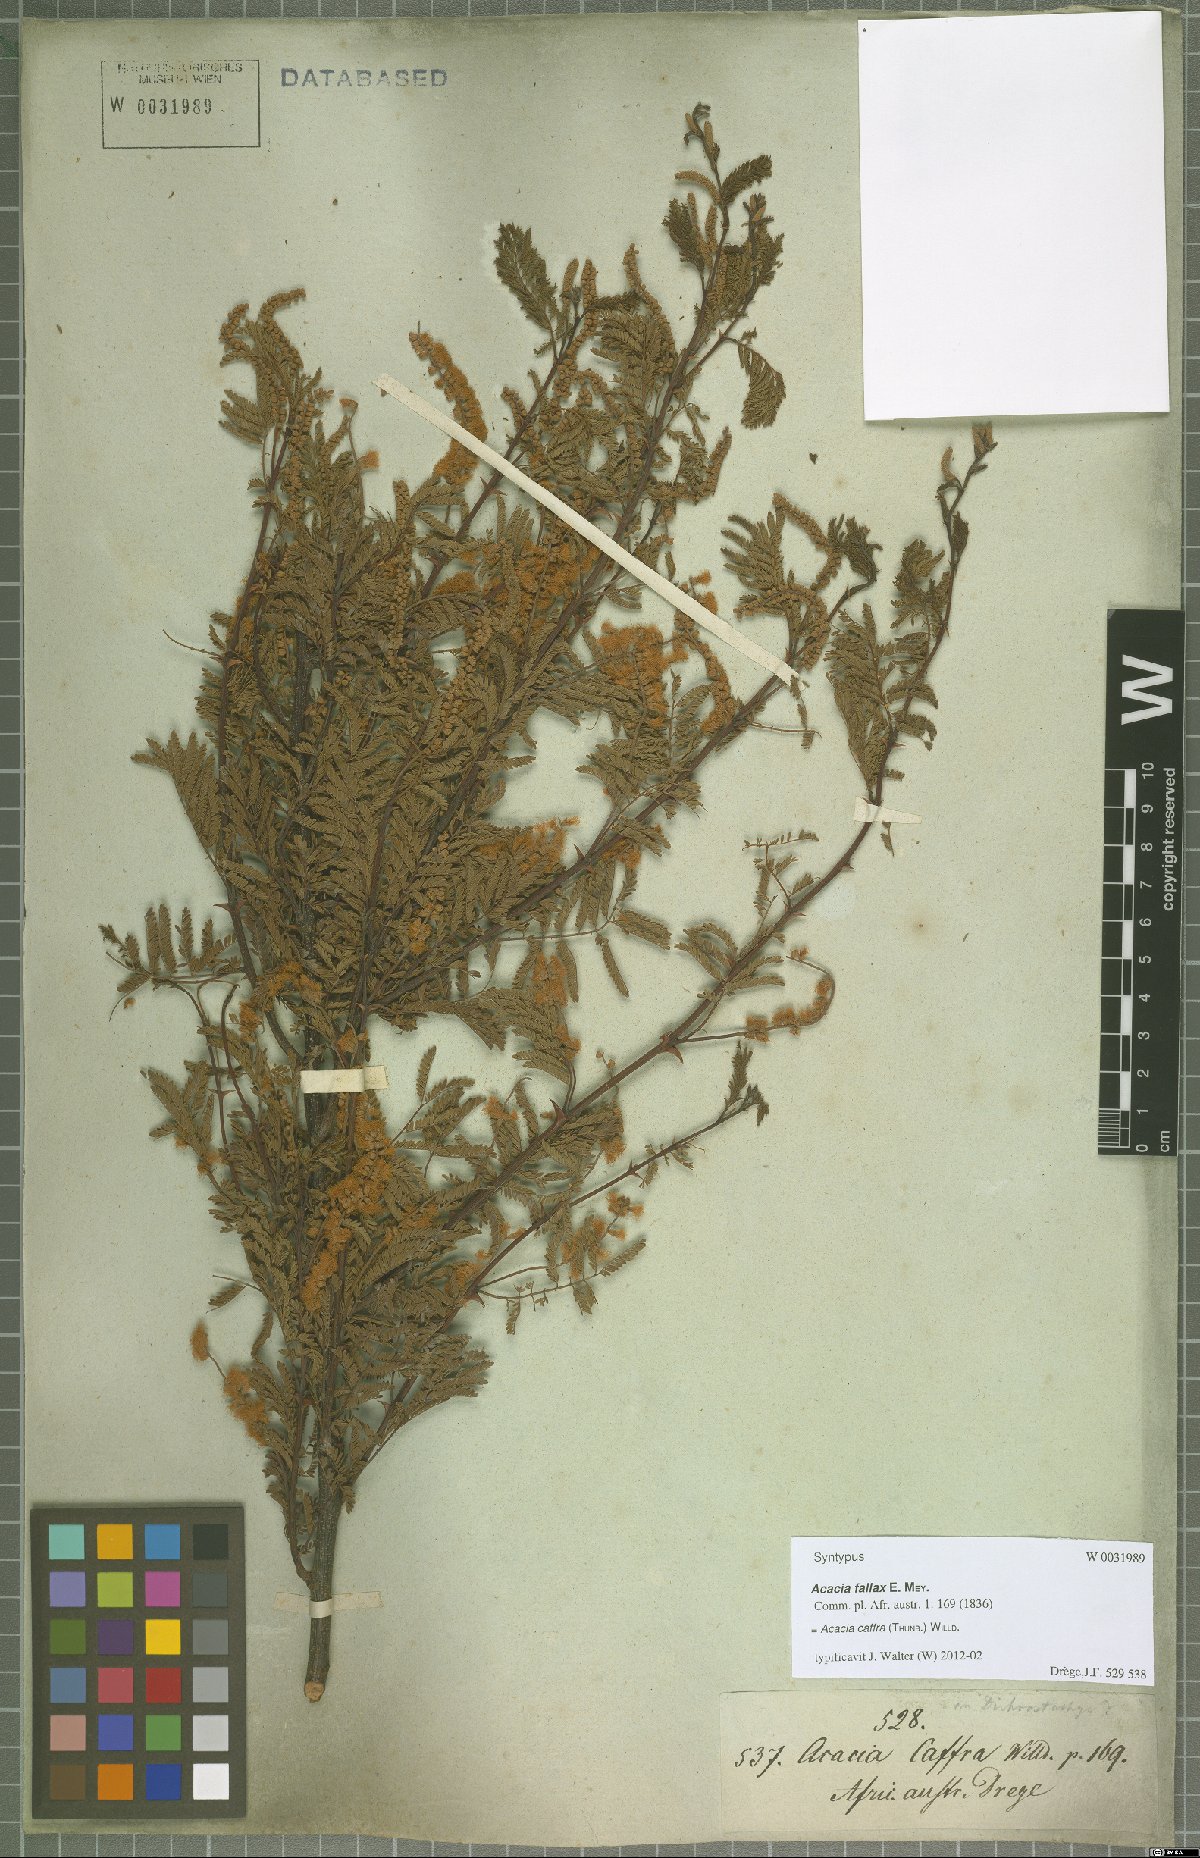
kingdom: Plantae
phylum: Tracheophyta
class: Magnoliopsida
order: Fabales
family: Fabaceae
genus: Senegalia
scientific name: Senegalia caffra
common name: Cat thorn
